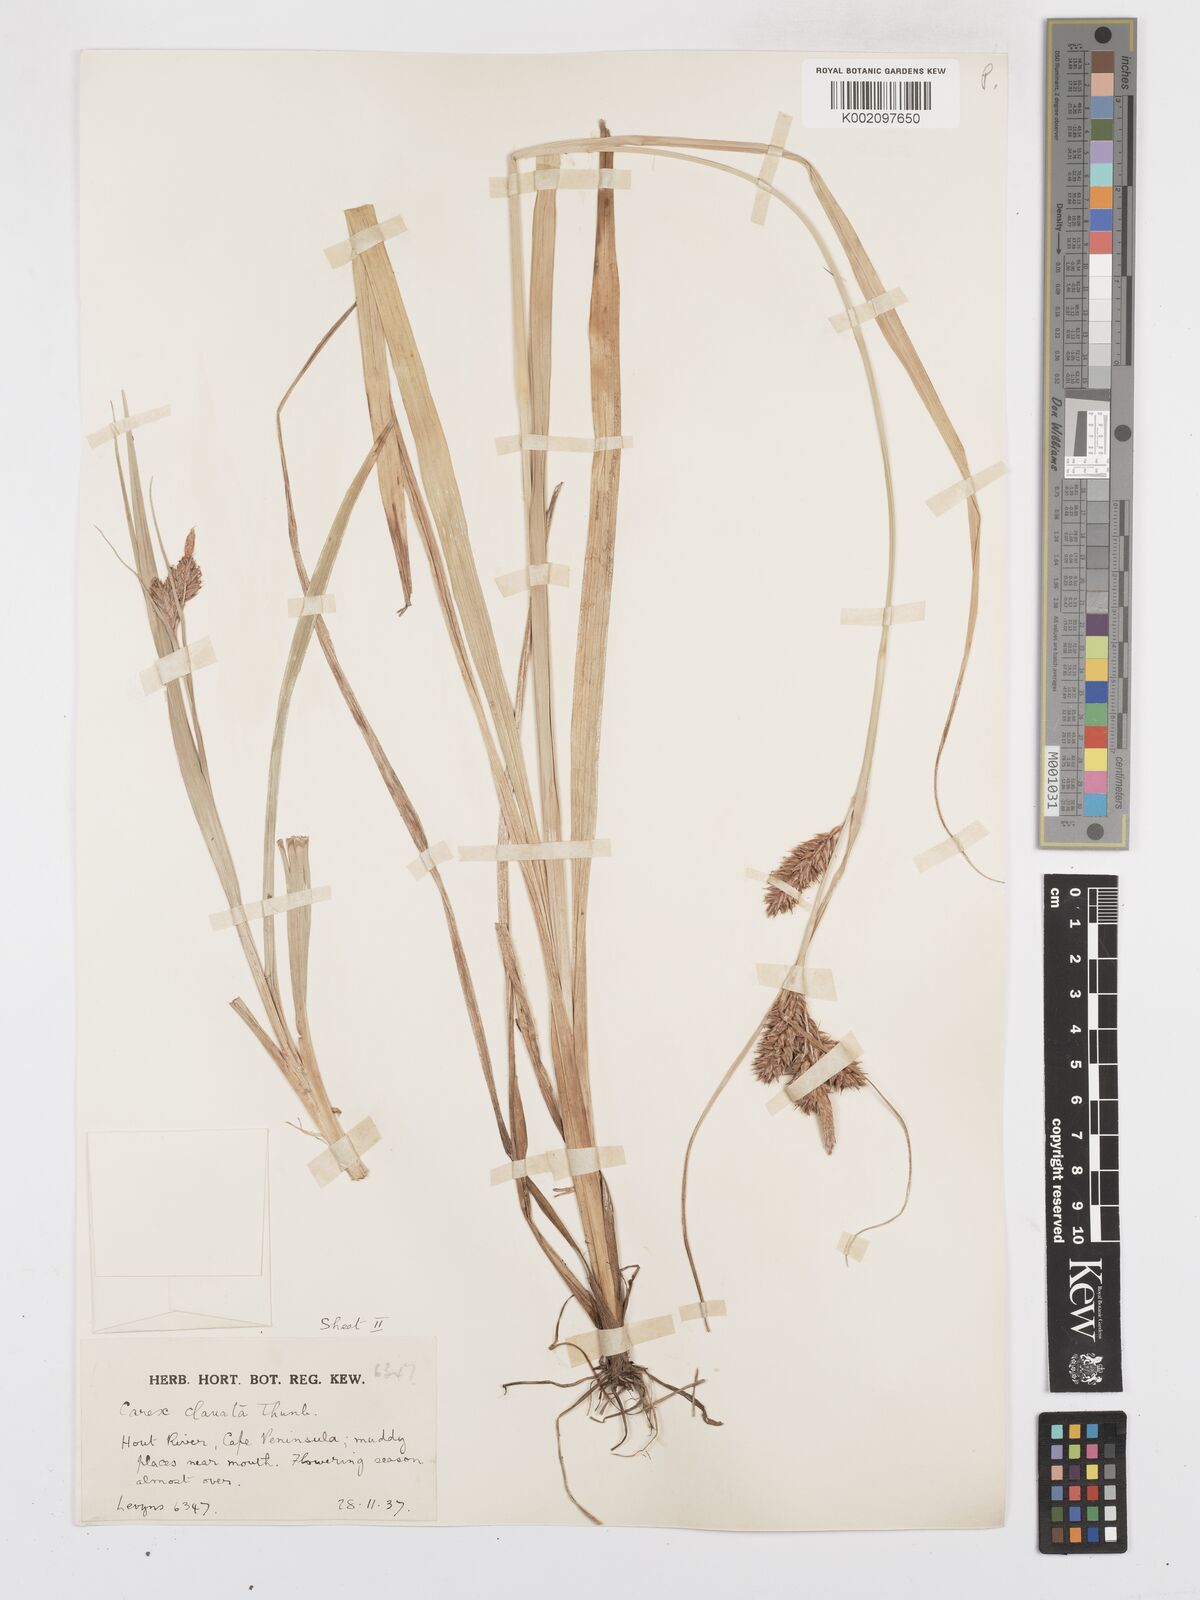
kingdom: Plantae
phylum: Tracheophyta
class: Liliopsida
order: Poales
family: Cyperaceae
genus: Carex
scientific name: Carex clavata
